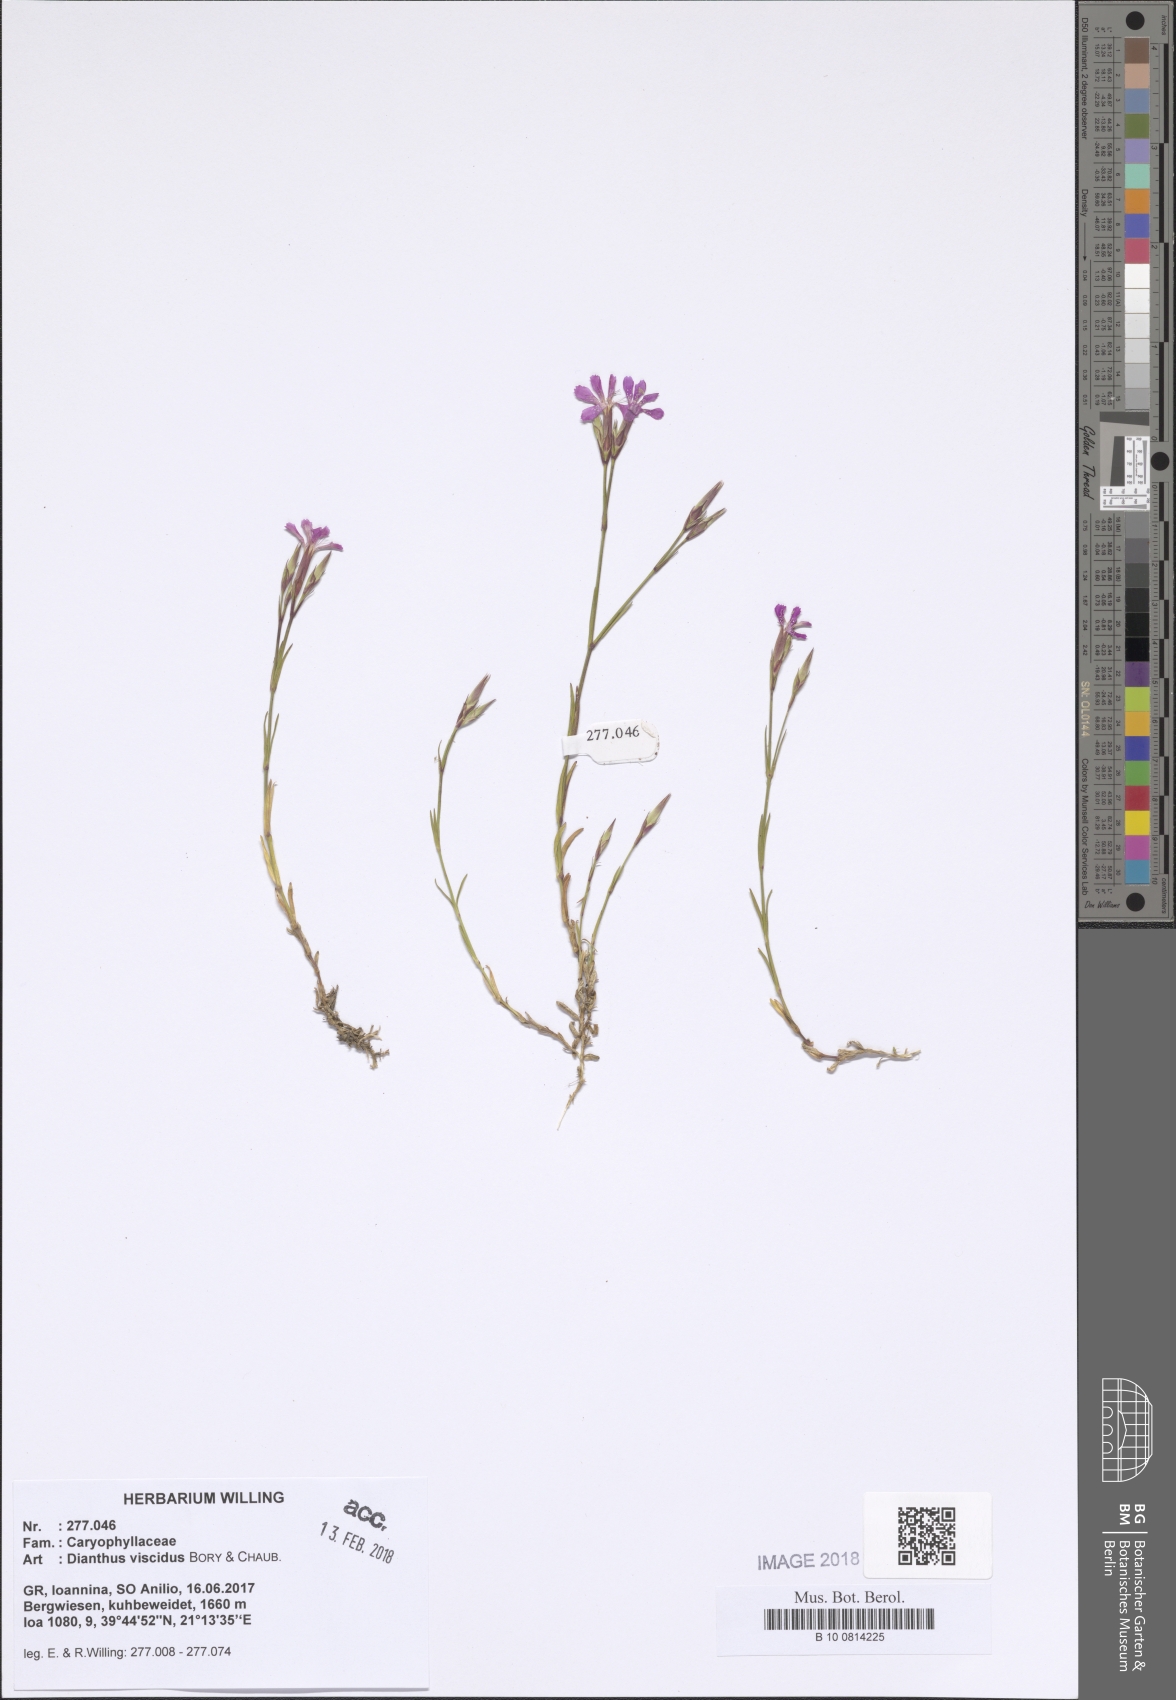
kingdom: Plantae
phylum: Tracheophyta
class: Magnoliopsida
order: Caryophyllales
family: Caryophyllaceae
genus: Dianthus
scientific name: Dianthus viscidus
